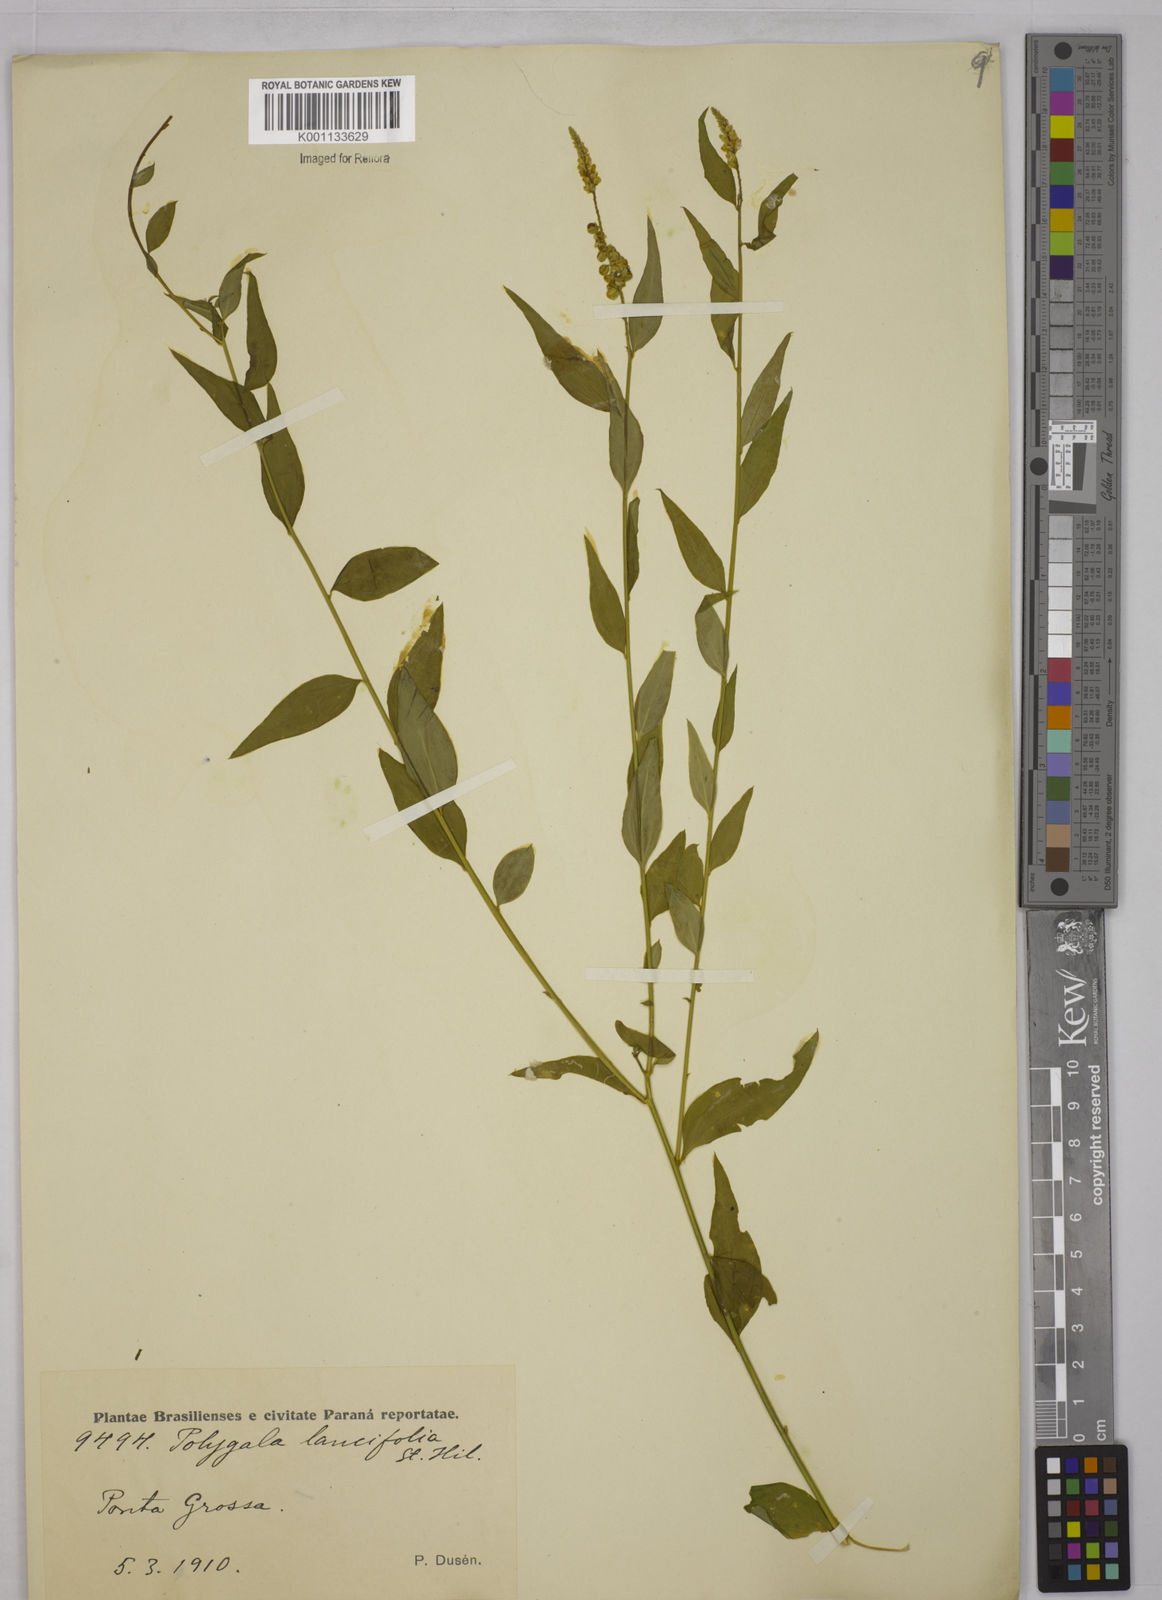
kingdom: Plantae
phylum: Tracheophyta
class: Magnoliopsida
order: Fabales
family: Polygalaceae
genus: Polygala
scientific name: Polygala lancifolia
